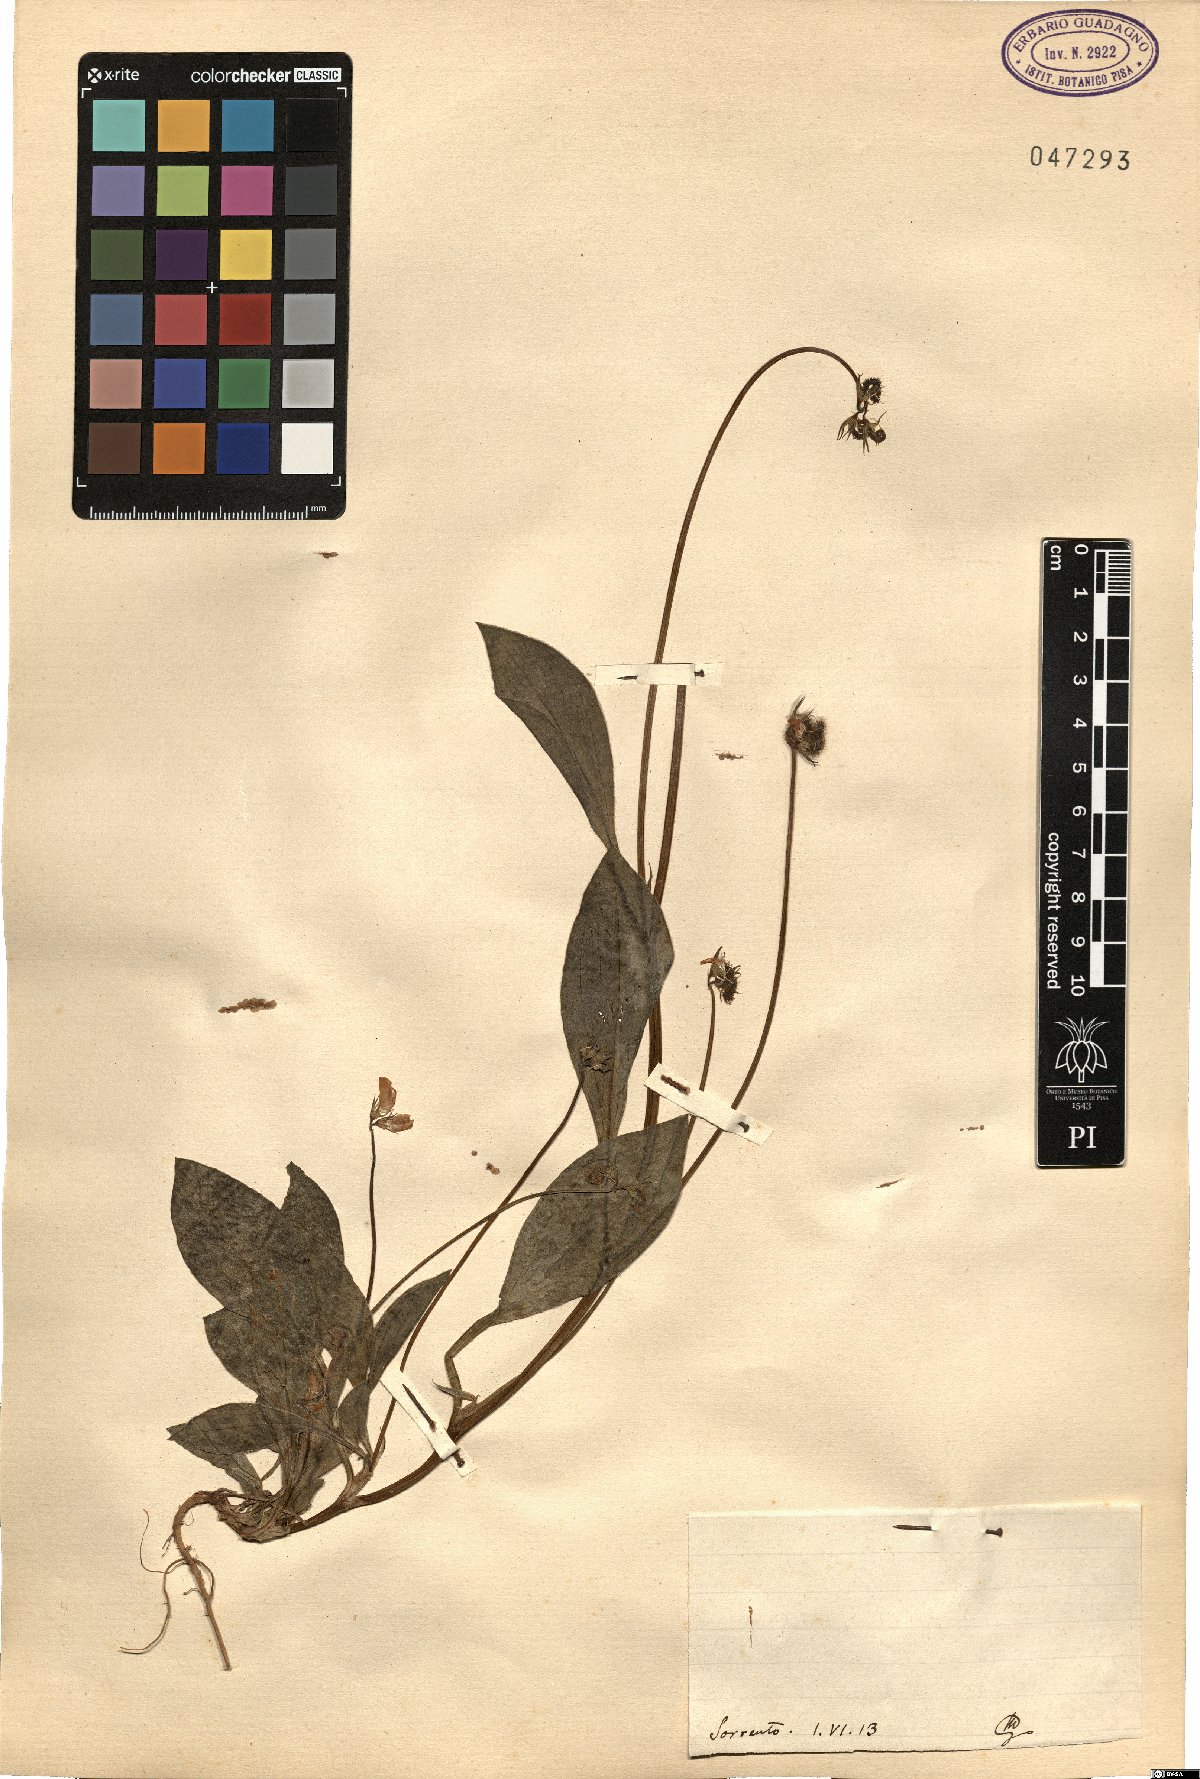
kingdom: Plantae
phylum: Tracheophyta
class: Magnoliopsida
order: Fabales
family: Fabaceae
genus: Scorpiurus
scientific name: Scorpiurus
